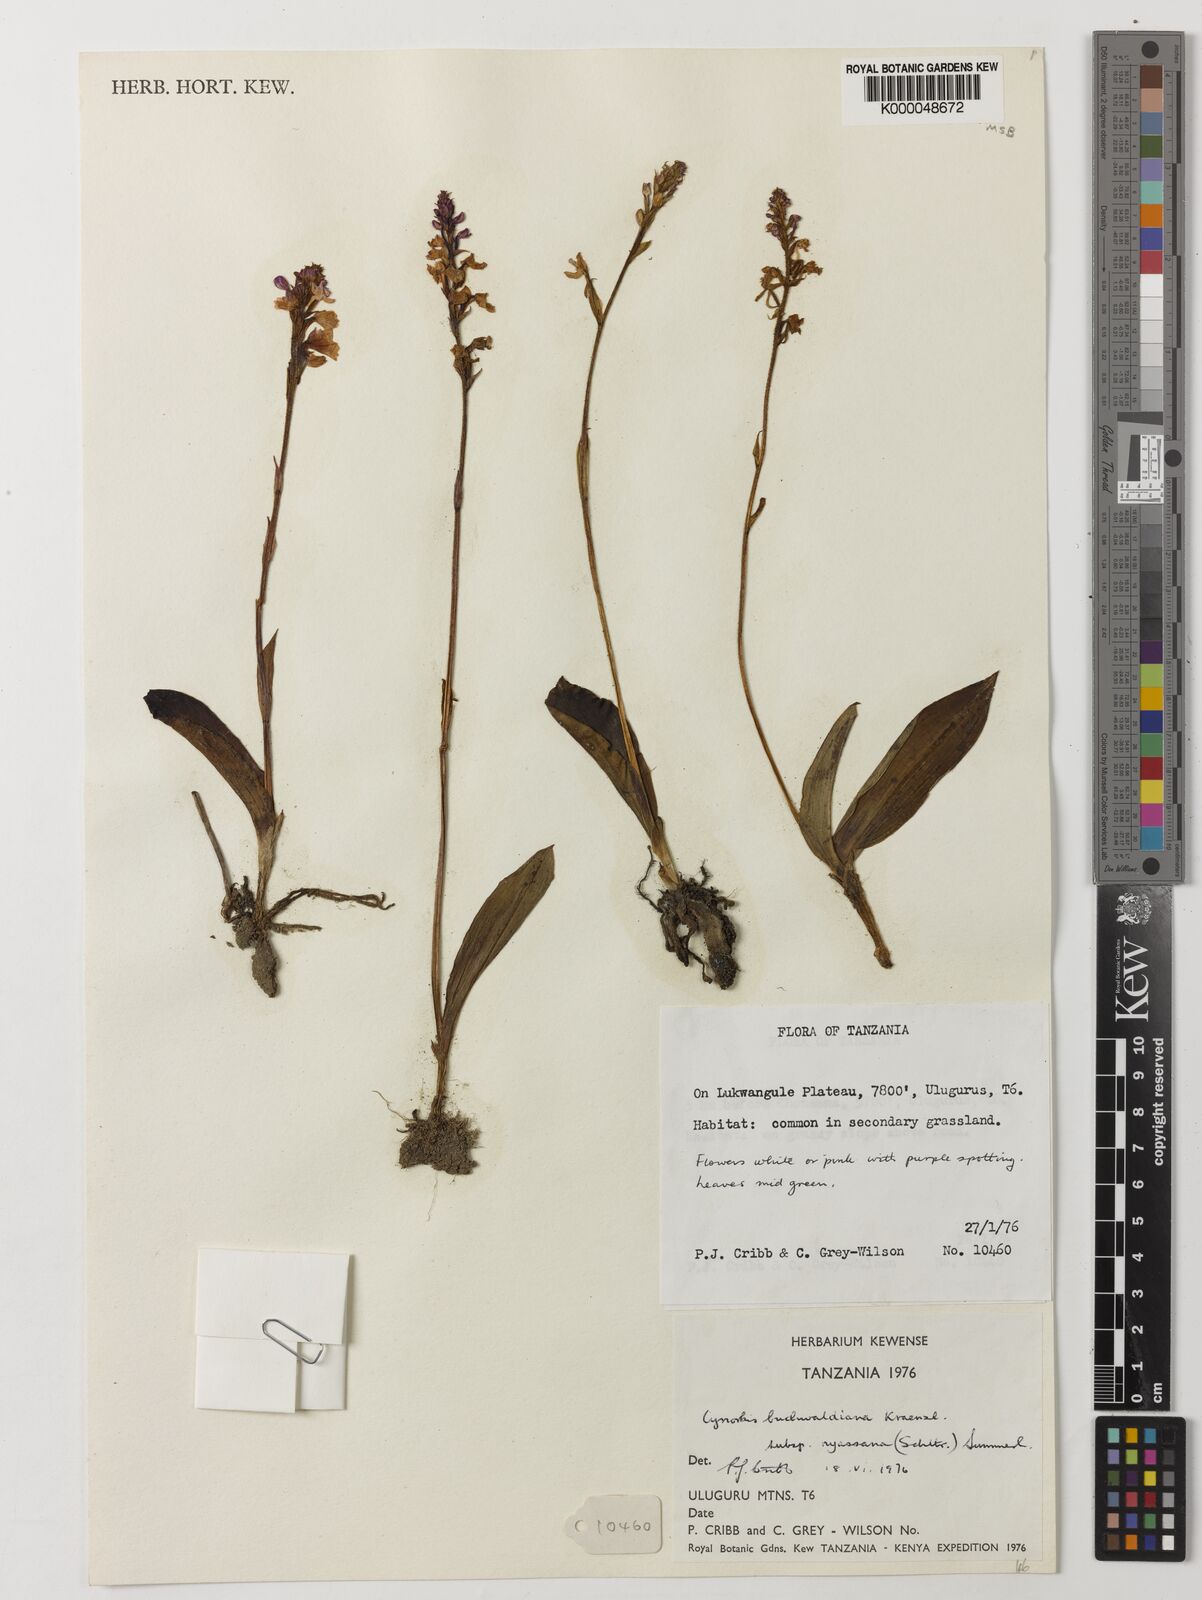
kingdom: Plantae
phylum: Tracheophyta
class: Liliopsida
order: Asparagales
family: Orchidaceae
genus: Cynorkis
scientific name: Cynorkis buchananii
